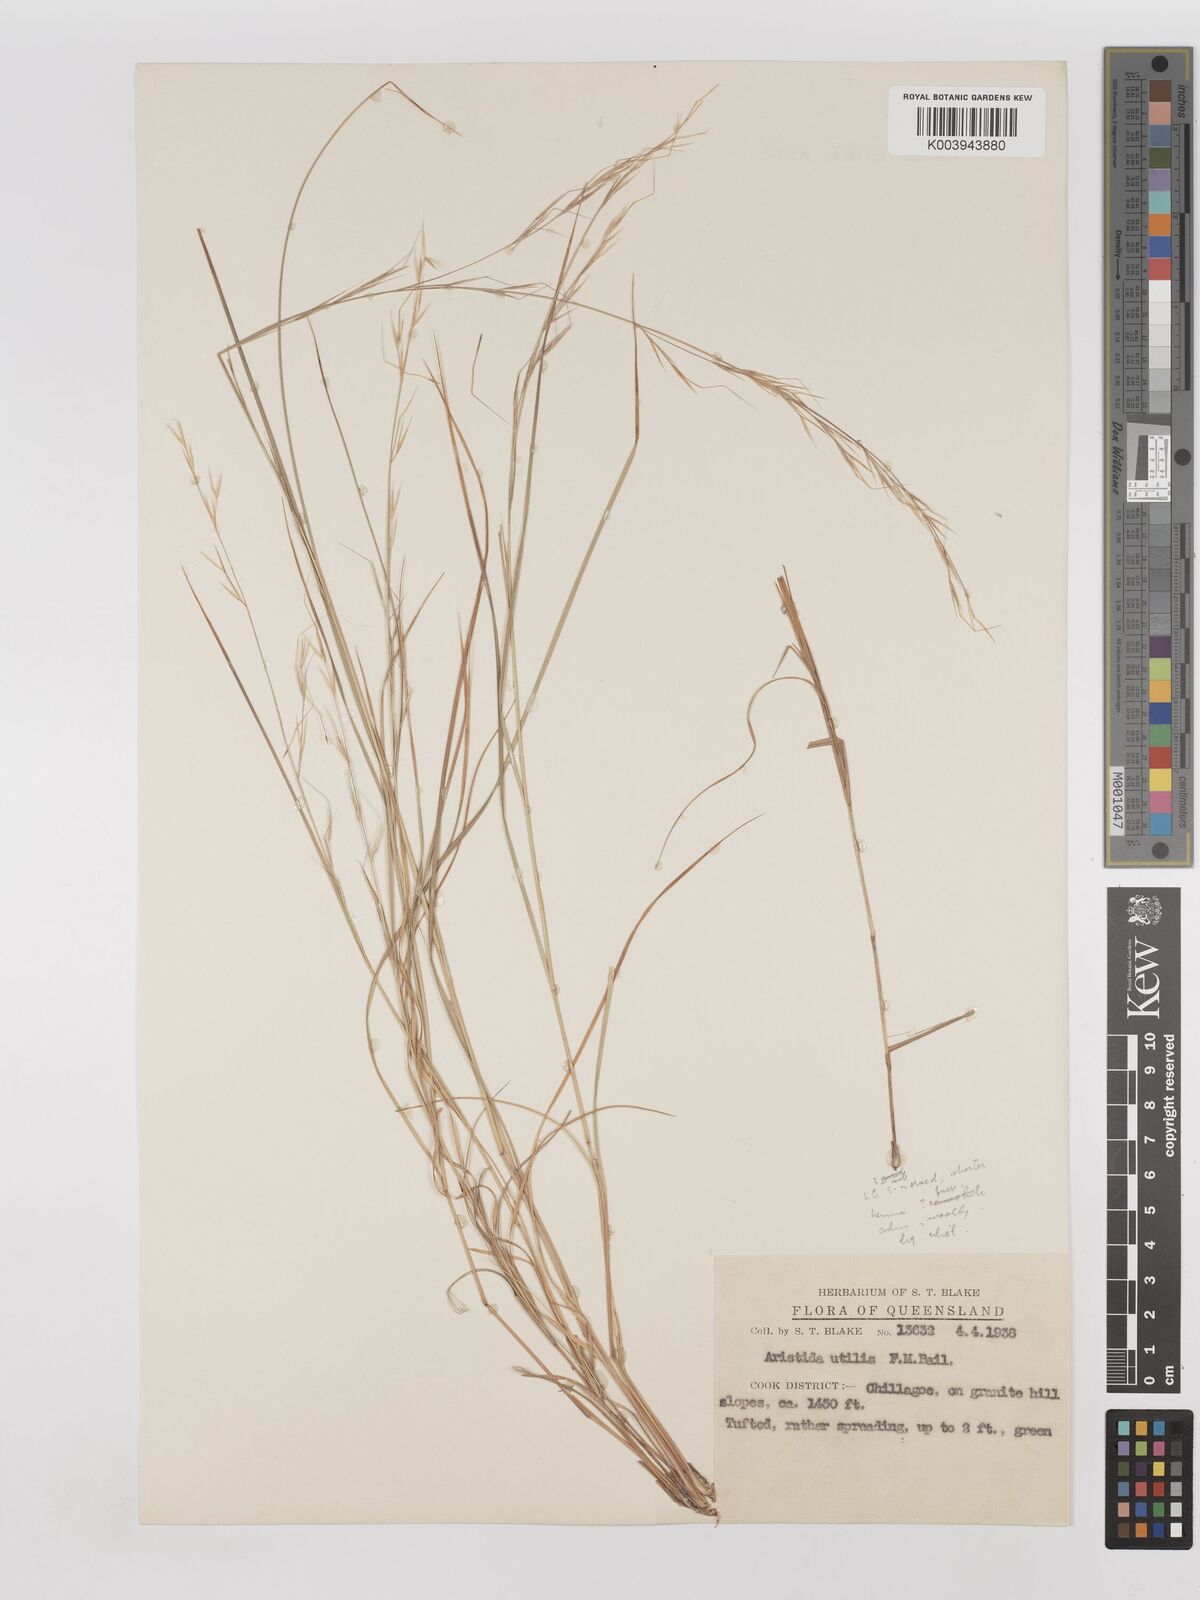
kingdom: Plantae
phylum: Tracheophyta
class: Liliopsida
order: Poales
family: Poaceae
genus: Aristida
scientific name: Aristida utilis
